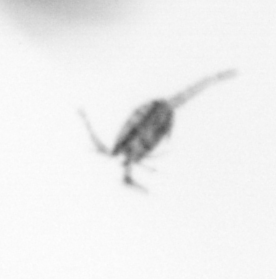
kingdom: Animalia
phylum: Arthropoda
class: Copepoda
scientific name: Copepoda
